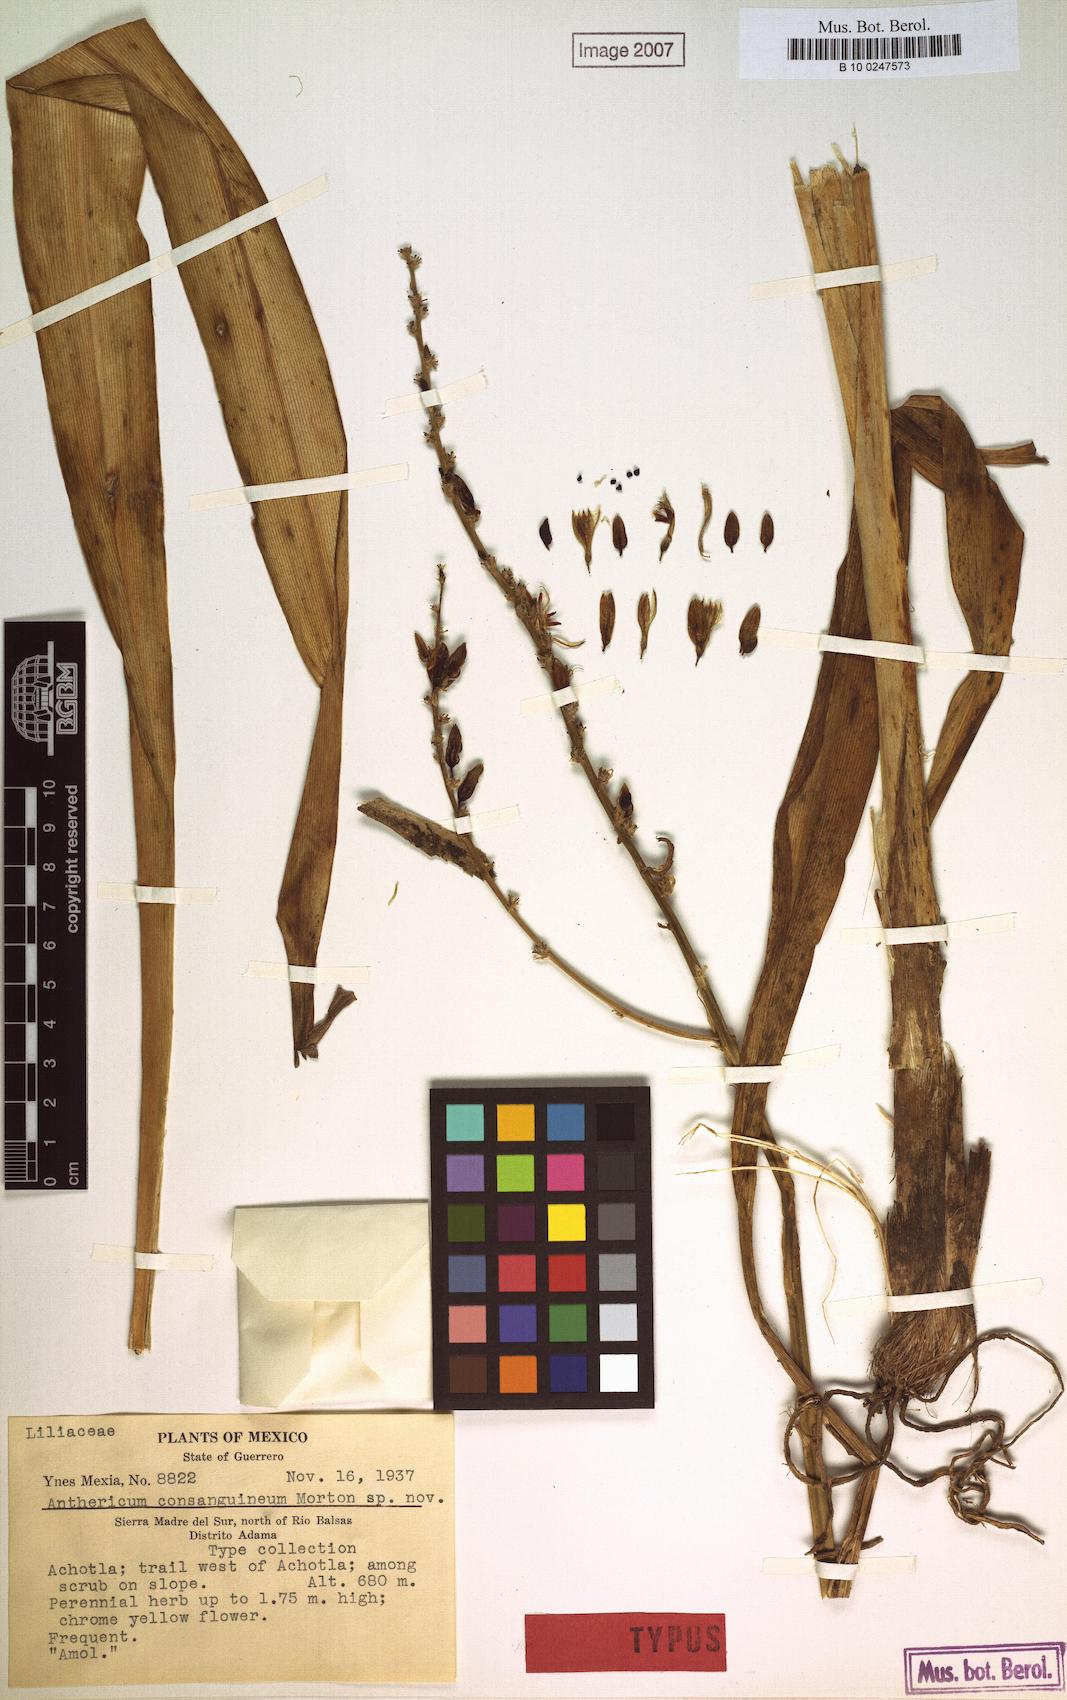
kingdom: Plantae
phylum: Tracheophyta
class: Liliopsida
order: Asparagales
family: Asparagaceae
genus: Anthericum
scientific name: Anthericum
